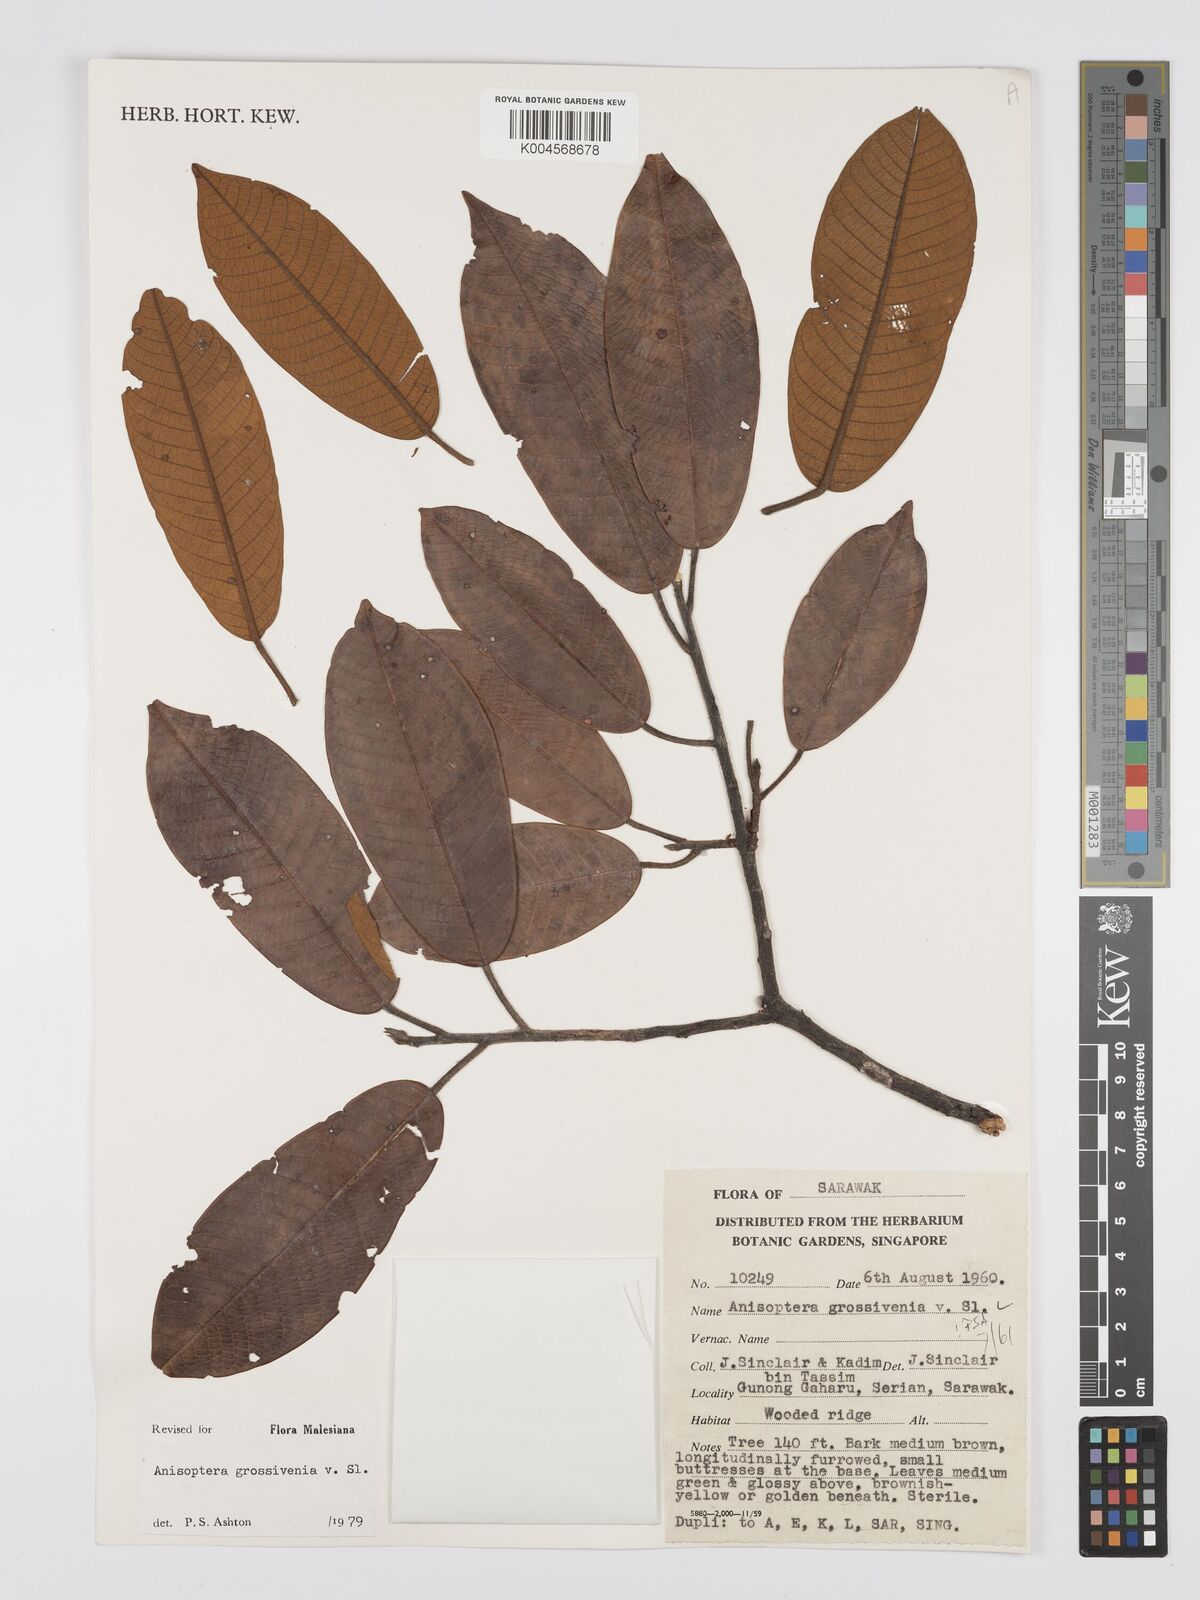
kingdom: Plantae
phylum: Tracheophyta
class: Magnoliopsida
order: Malvales
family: Dipterocarpaceae
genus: Anisoptera
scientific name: Anisoptera grossivenia
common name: Krabak
